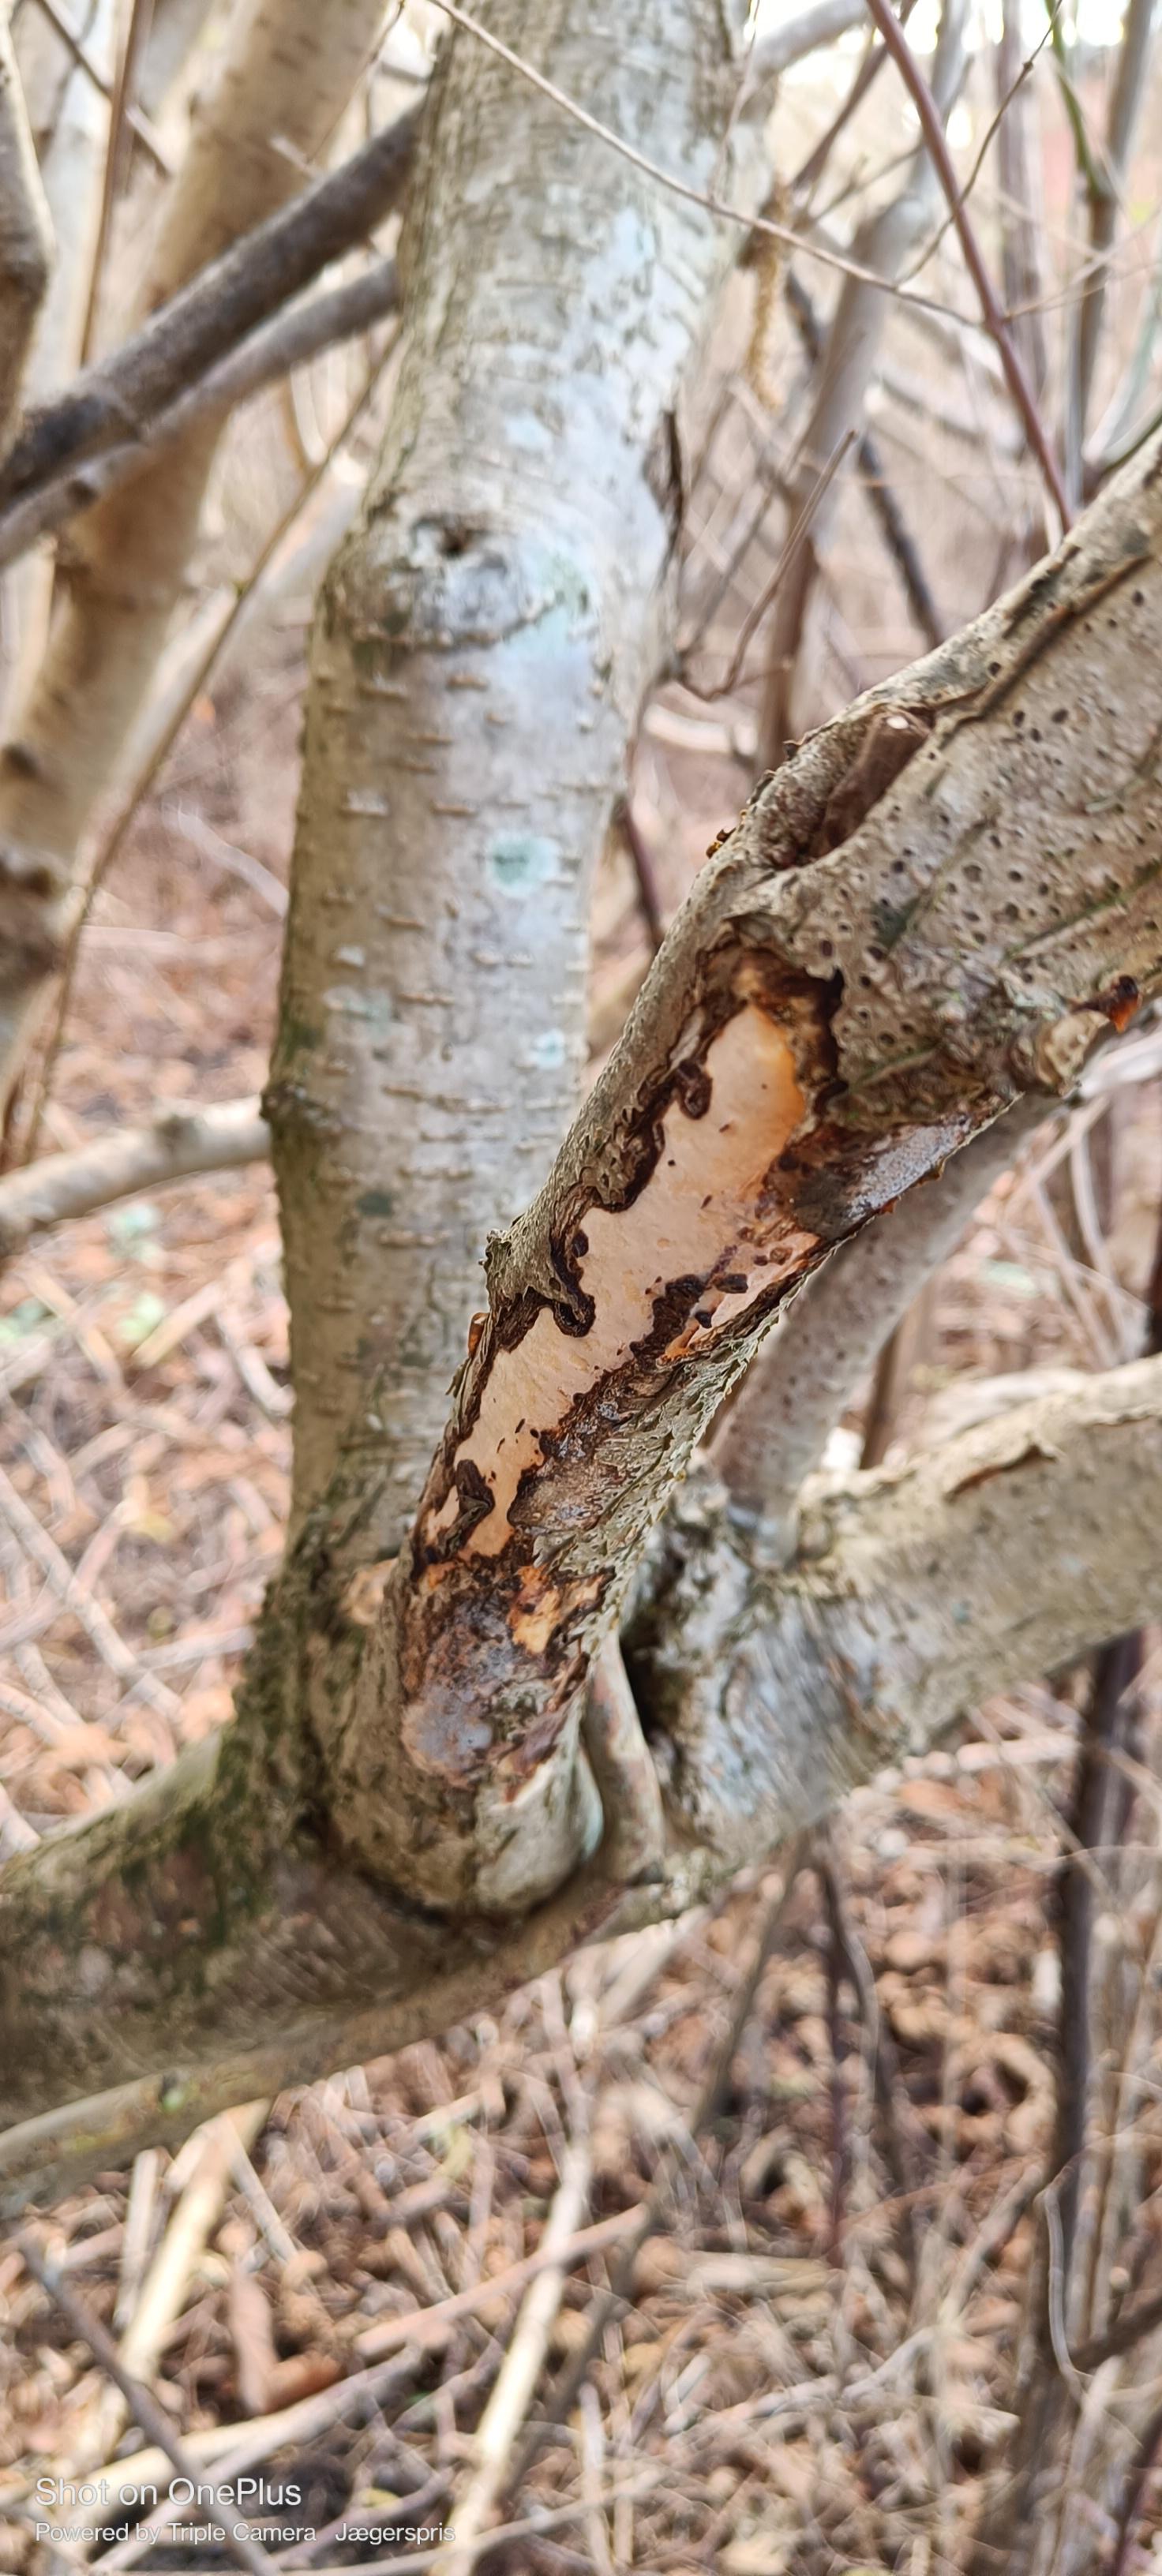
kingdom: Fungi
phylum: Basidiomycota
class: Agaricomycetes
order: Corticiales
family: Vuilleminiaceae
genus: Vuilleminia
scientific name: Vuilleminia coryli
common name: hassel-barksprænger
